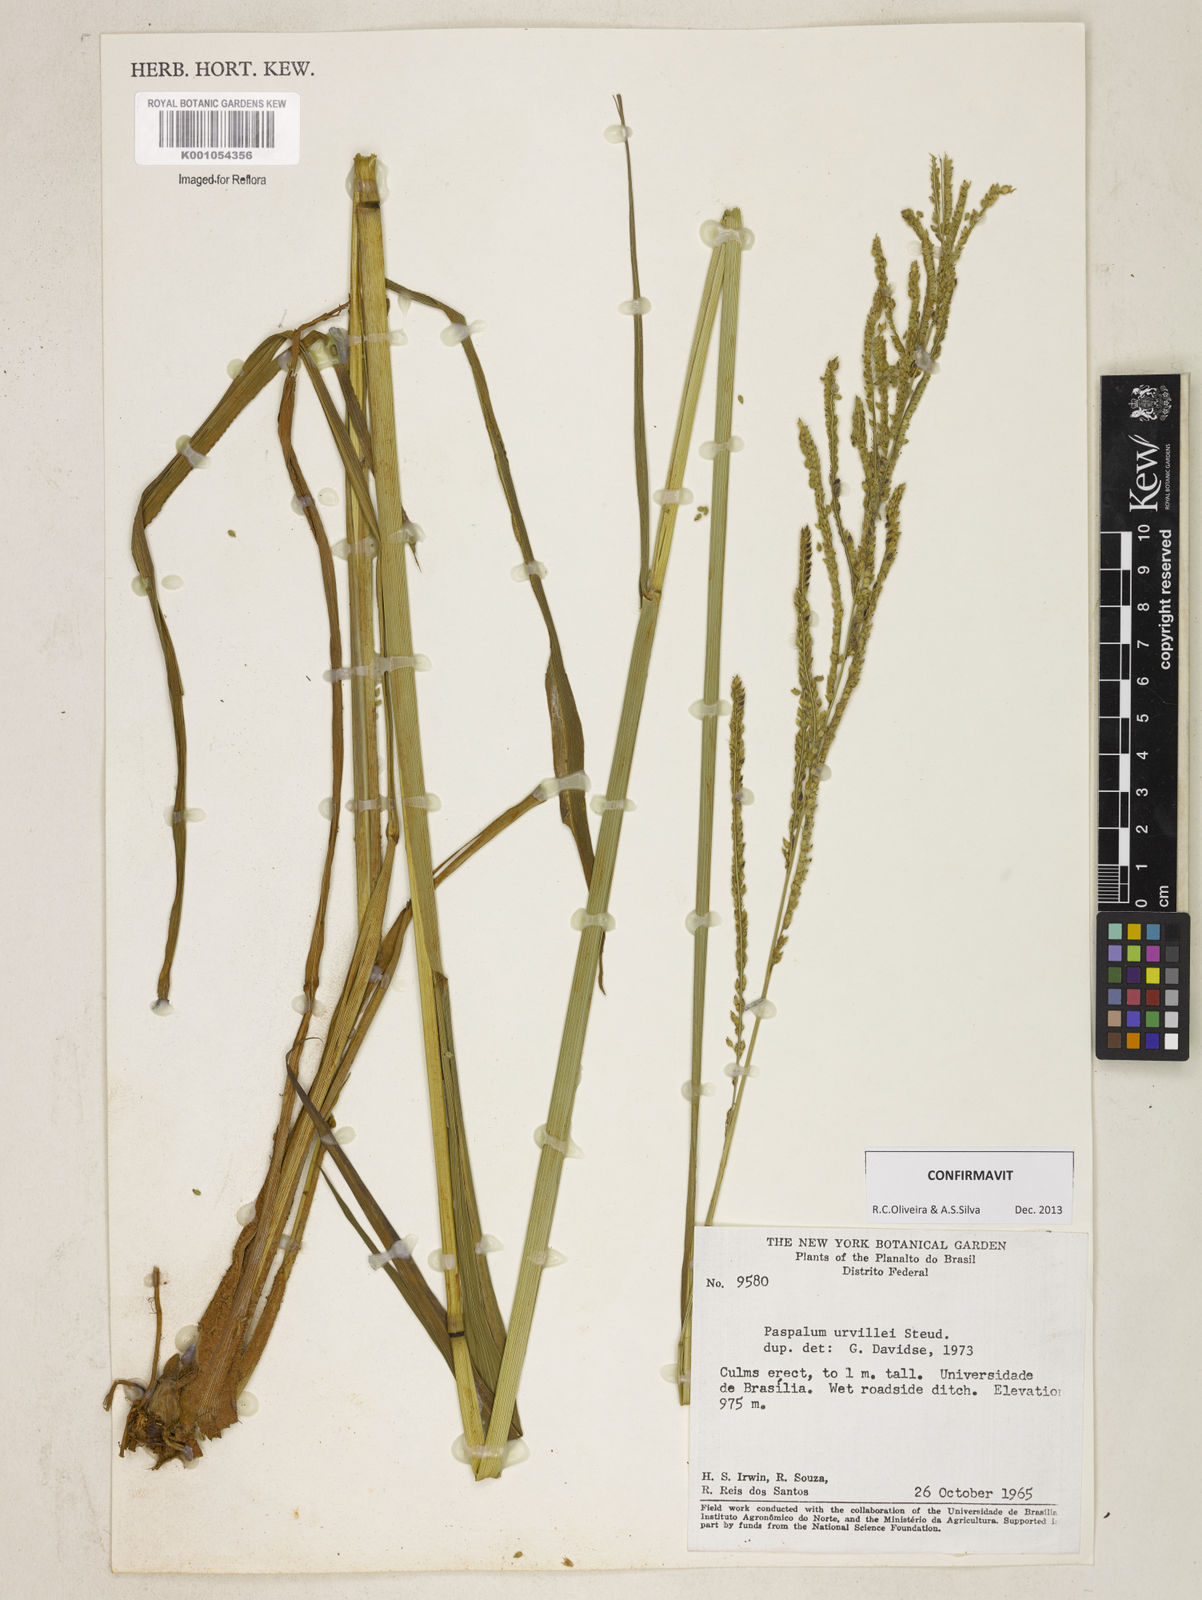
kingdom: Plantae
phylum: Tracheophyta
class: Liliopsida
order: Poales
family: Poaceae
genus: Paspalum
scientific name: Paspalum urvillei
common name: Vasey's grass
